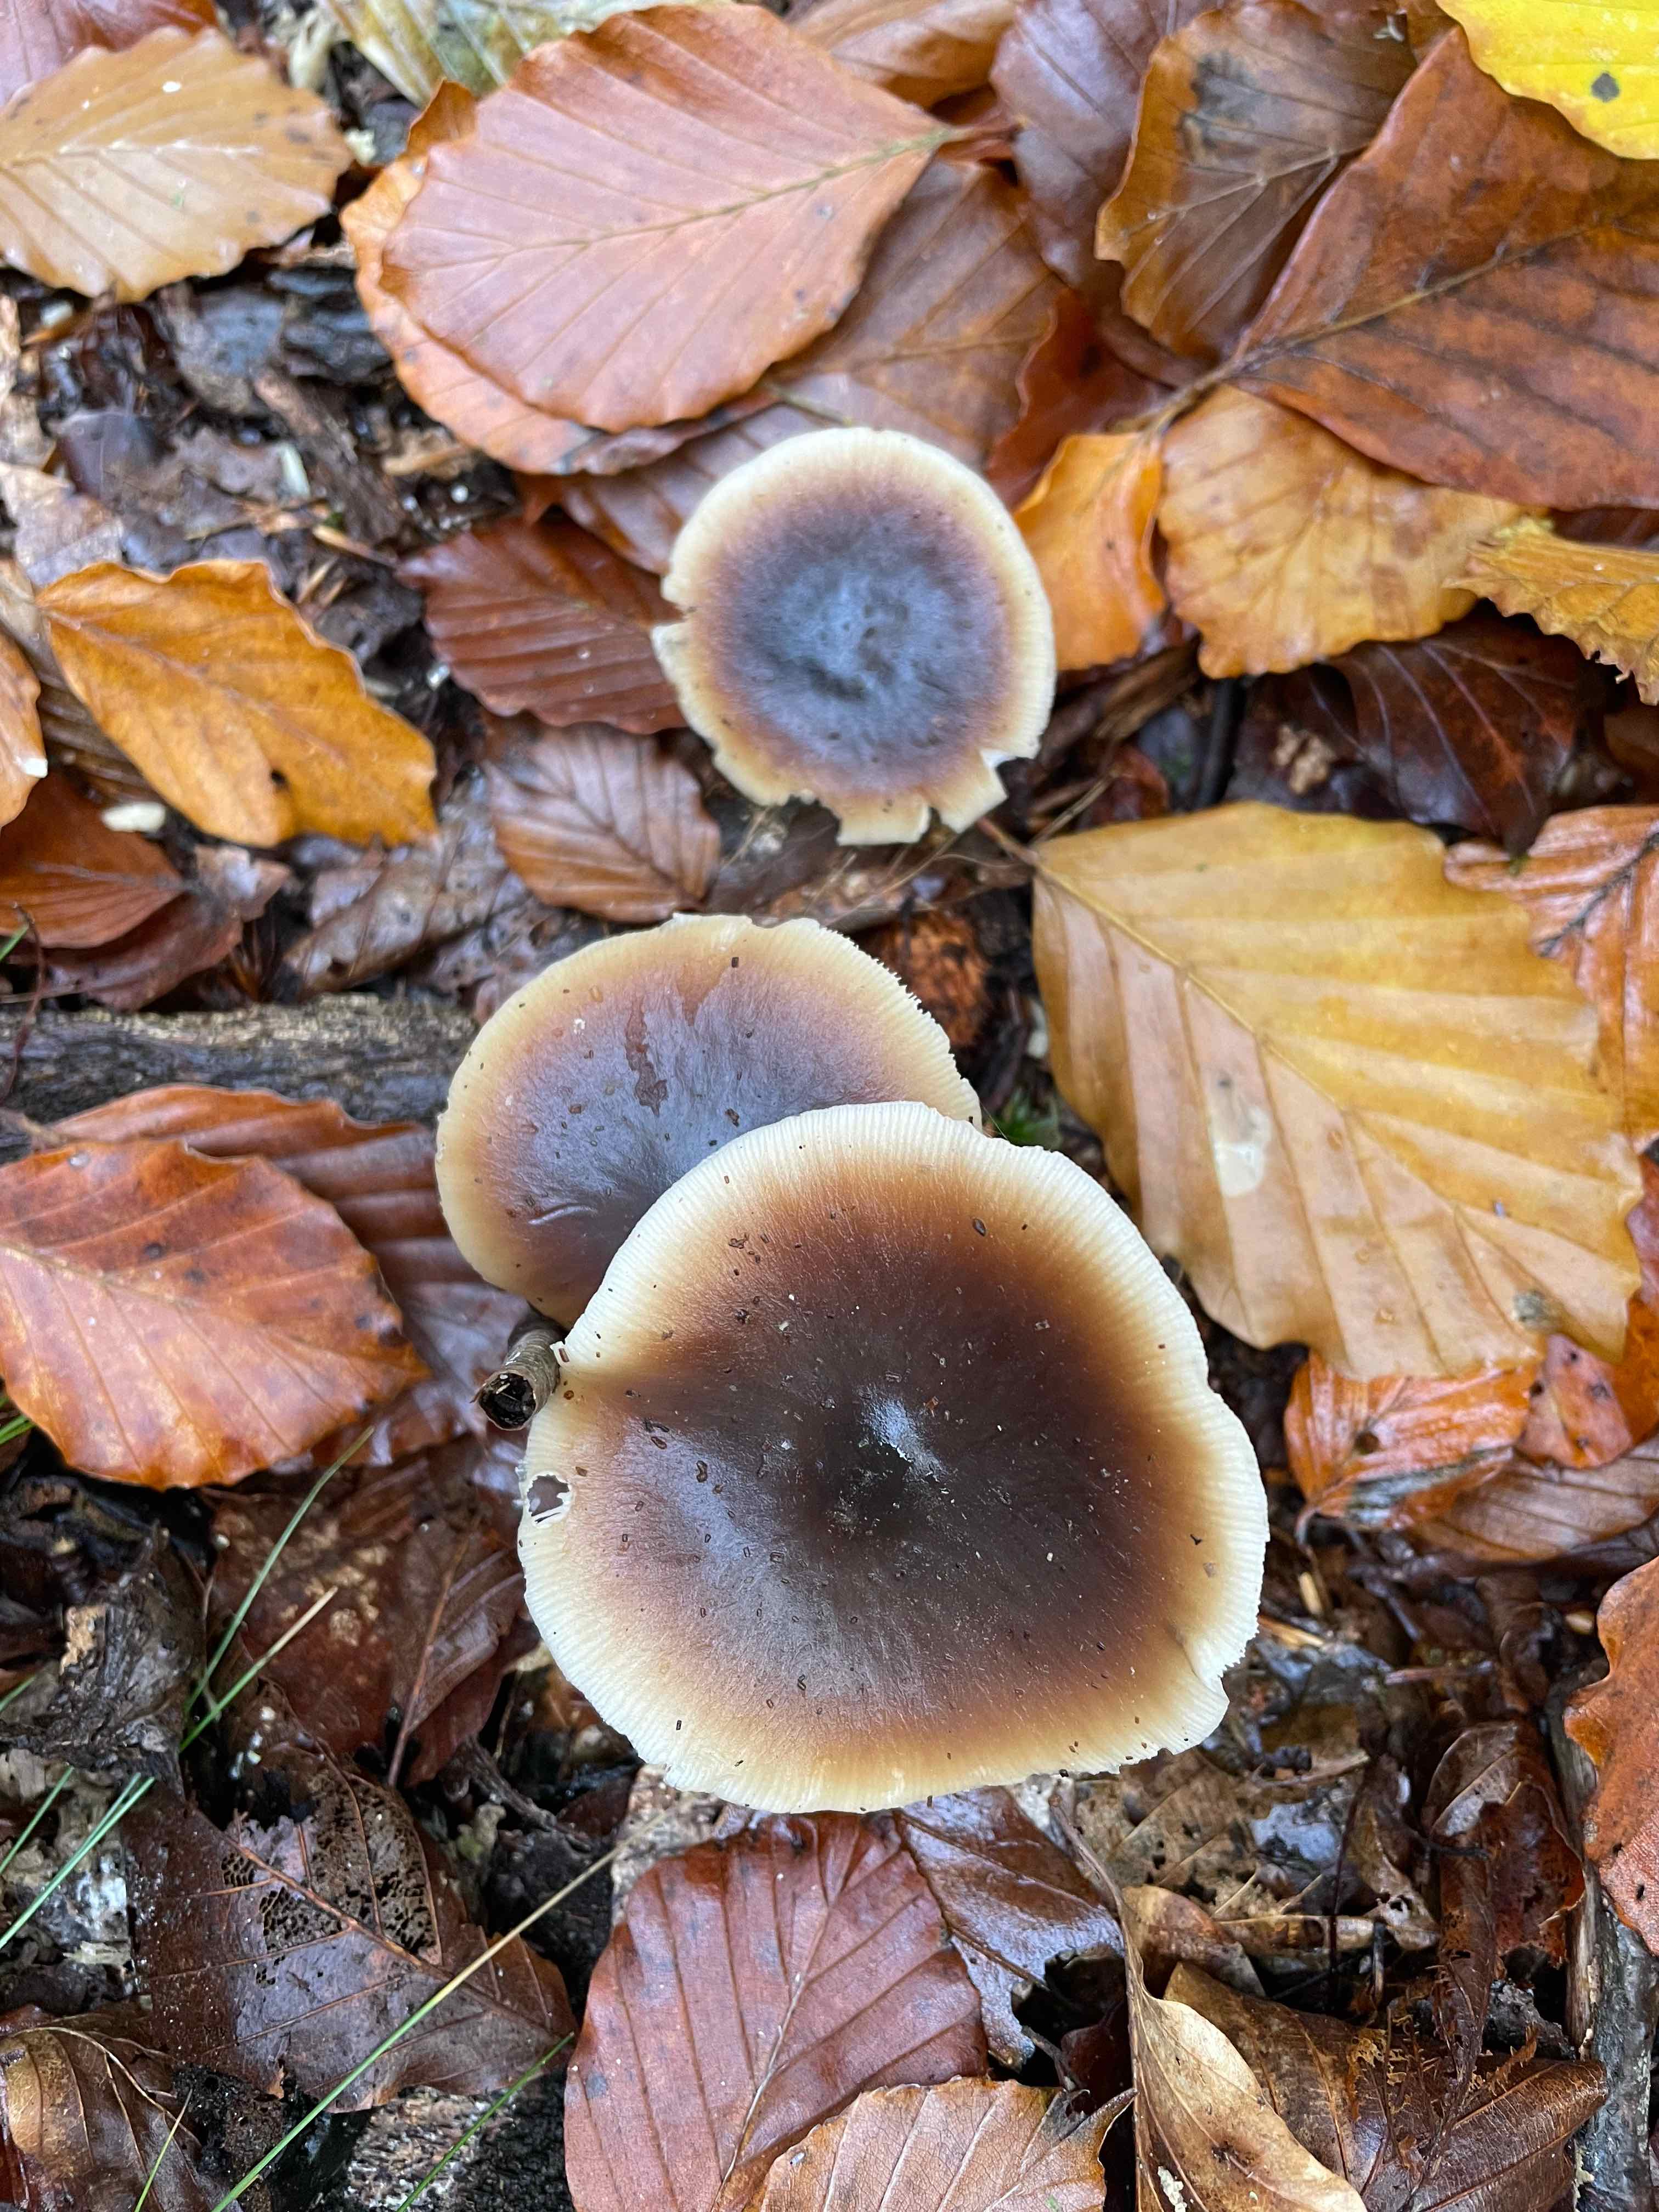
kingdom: Fungi
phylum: Basidiomycota
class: Agaricomycetes
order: Agaricales
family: Omphalotaceae
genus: Rhodocollybia
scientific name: Rhodocollybia asema
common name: horngrå fladhat
